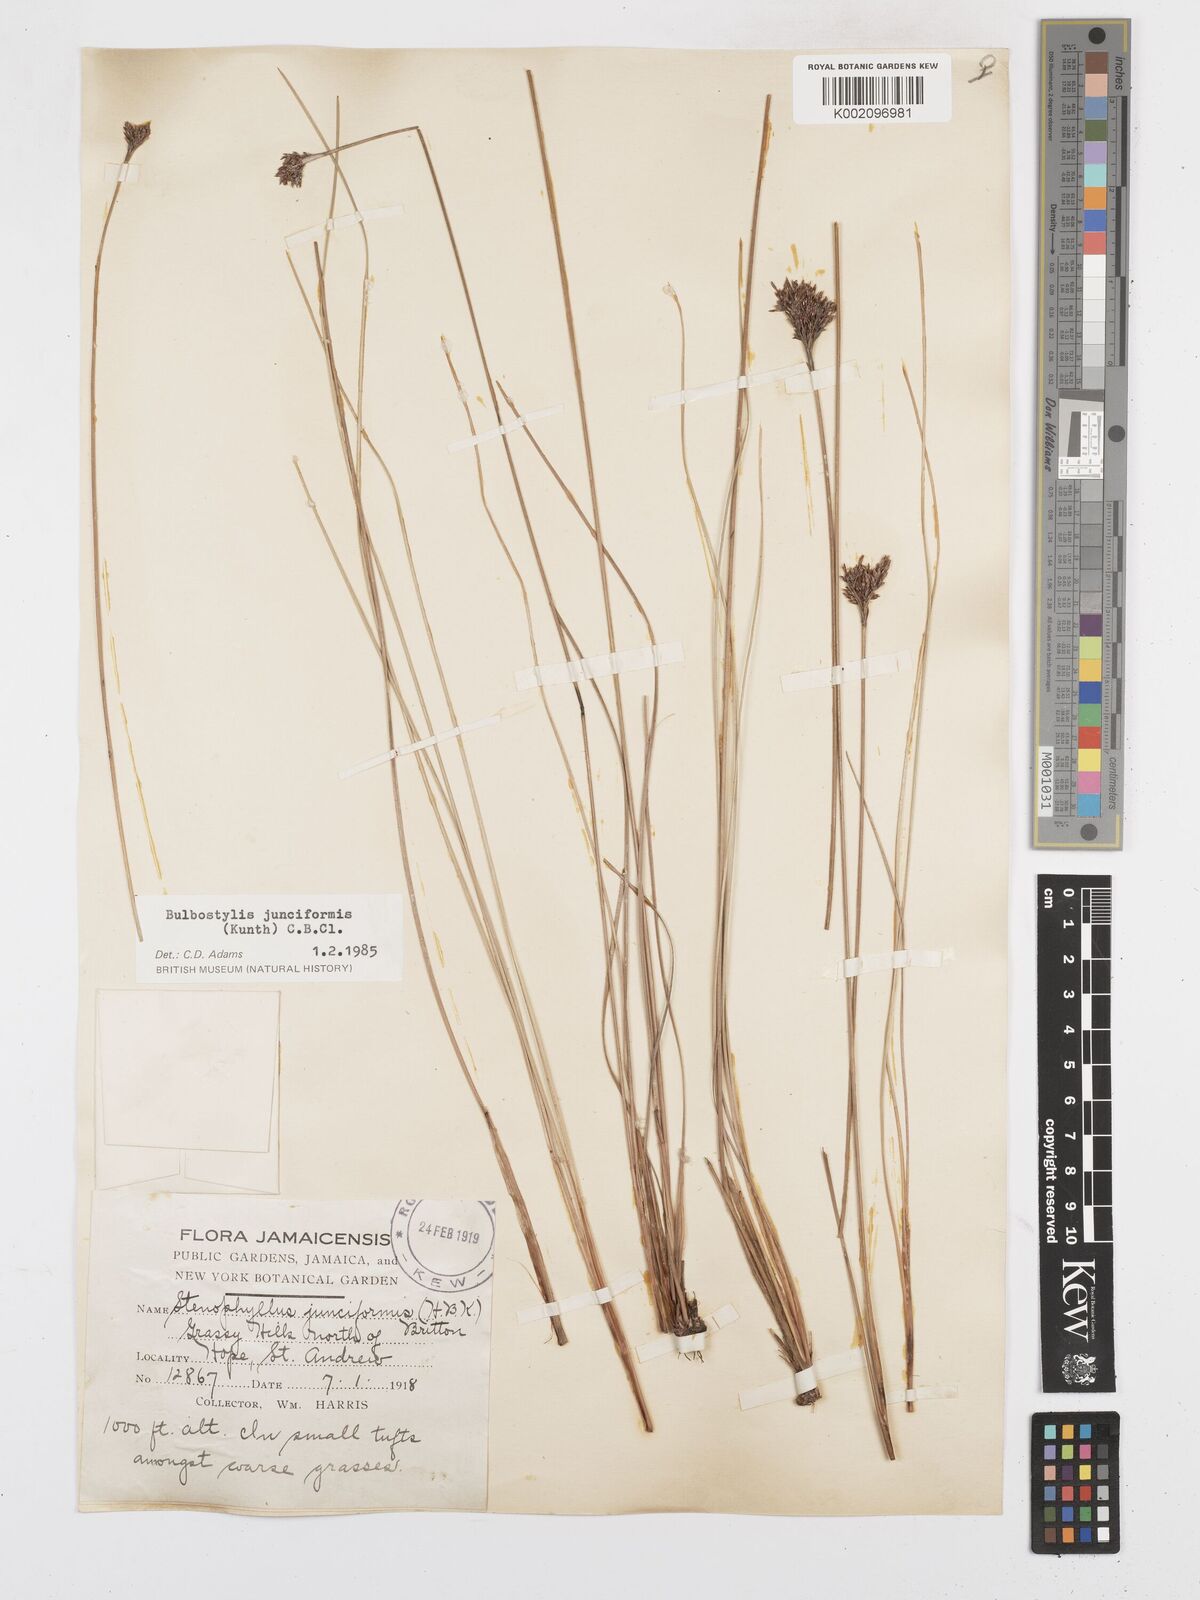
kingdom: Plantae
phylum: Tracheophyta
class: Liliopsida
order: Poales
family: Cyperaceae
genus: Bulbostylis
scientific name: Bulbostylis junciformis
